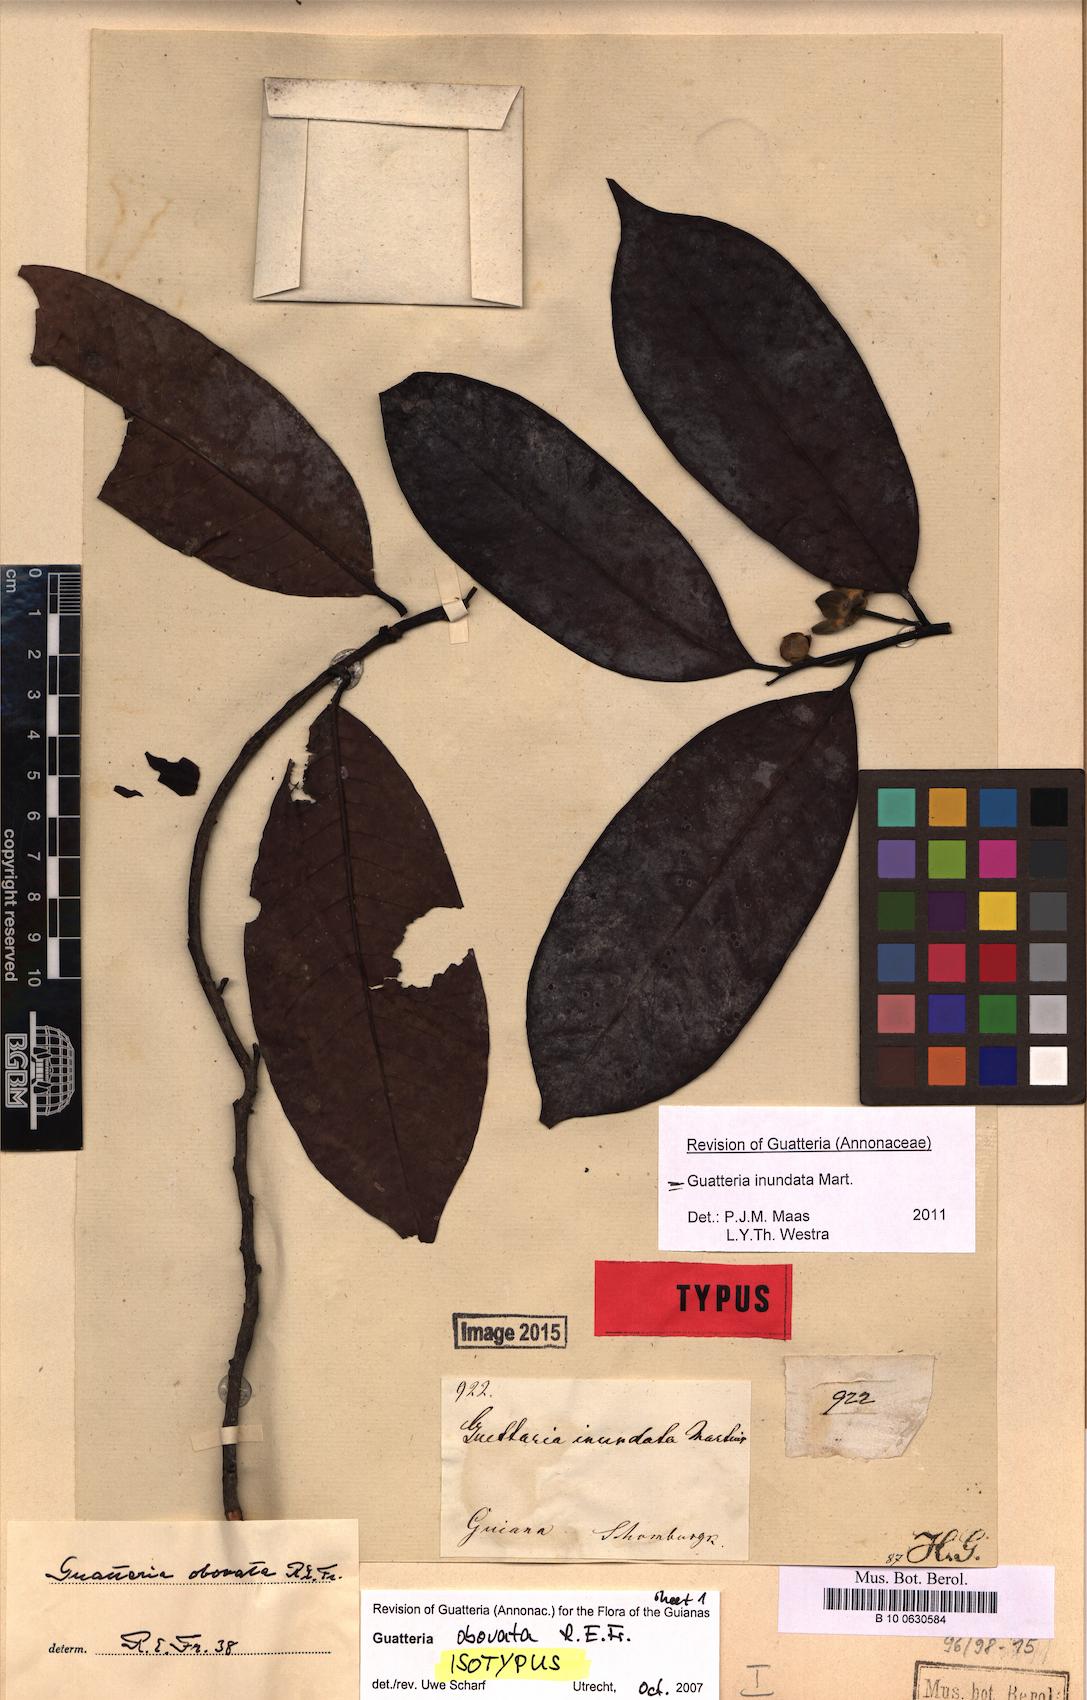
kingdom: Plantae
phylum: Tracheophyta
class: Magnoliopsida
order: Magnoliales
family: Annonaceae
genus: Guatteria
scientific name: Guatteria inundata
